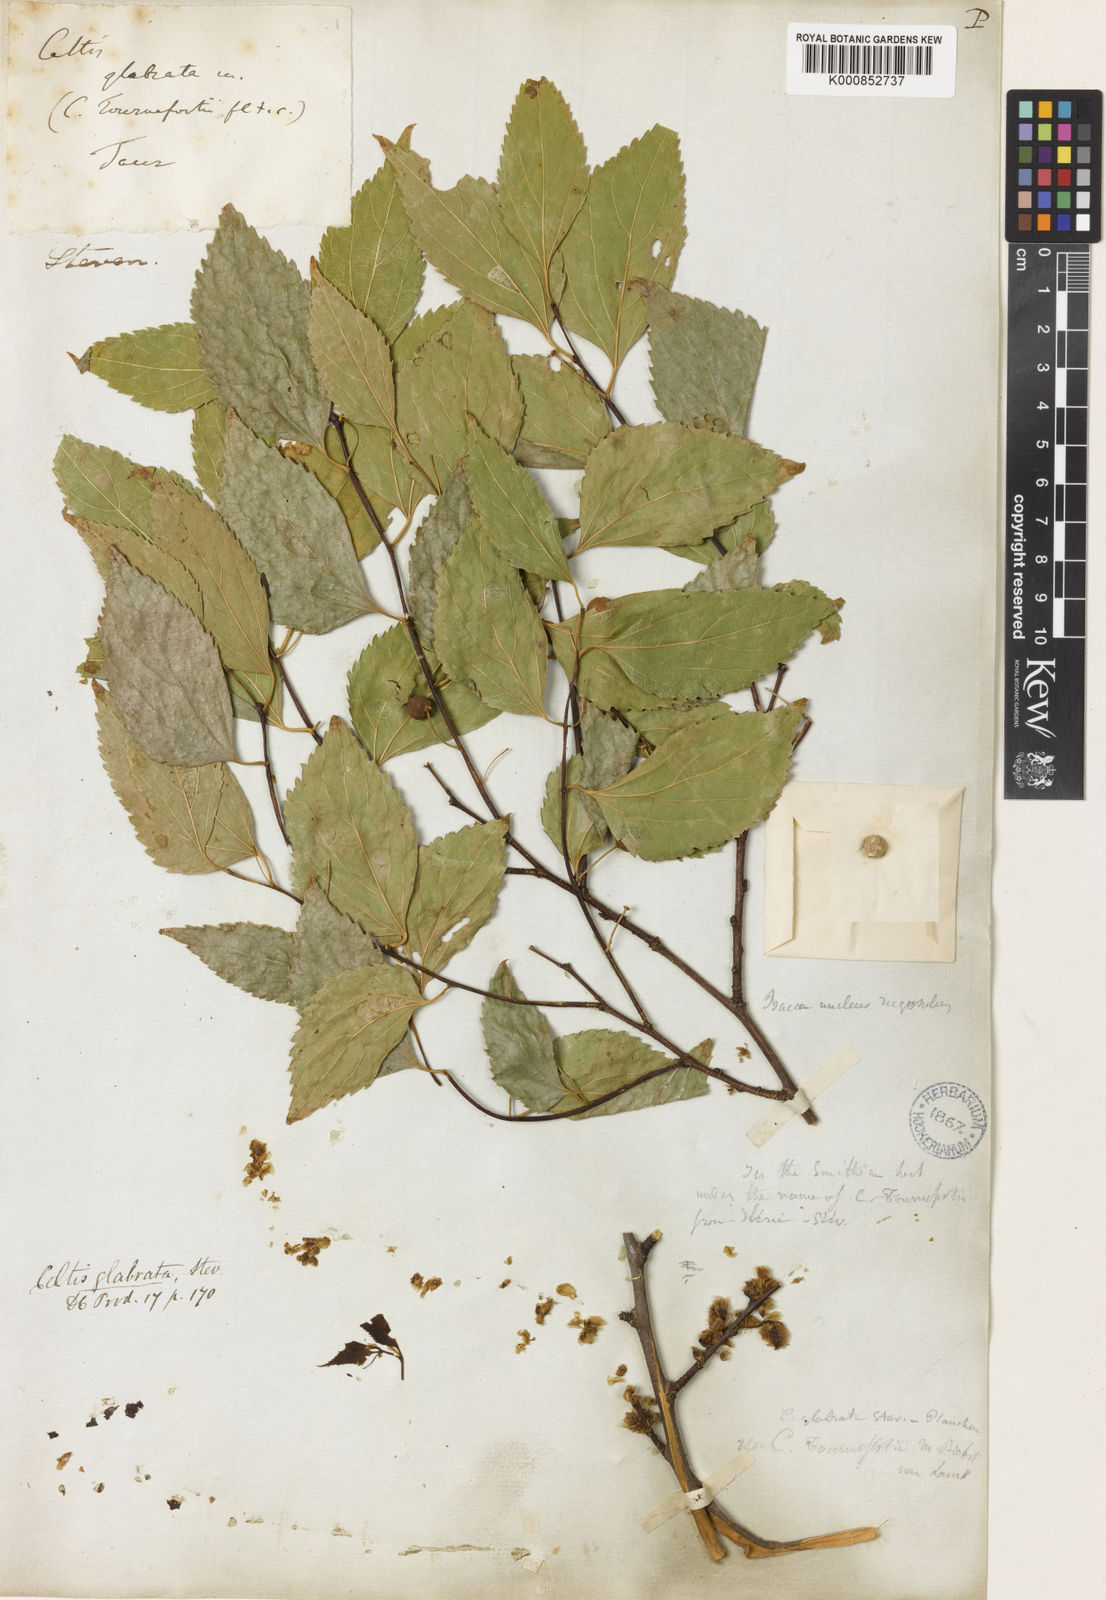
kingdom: Plantae
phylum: Tracheophyta
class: Magnoliopsida
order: Rosales
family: Cannabaceae
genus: Celtis
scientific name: Celtis glabrata
